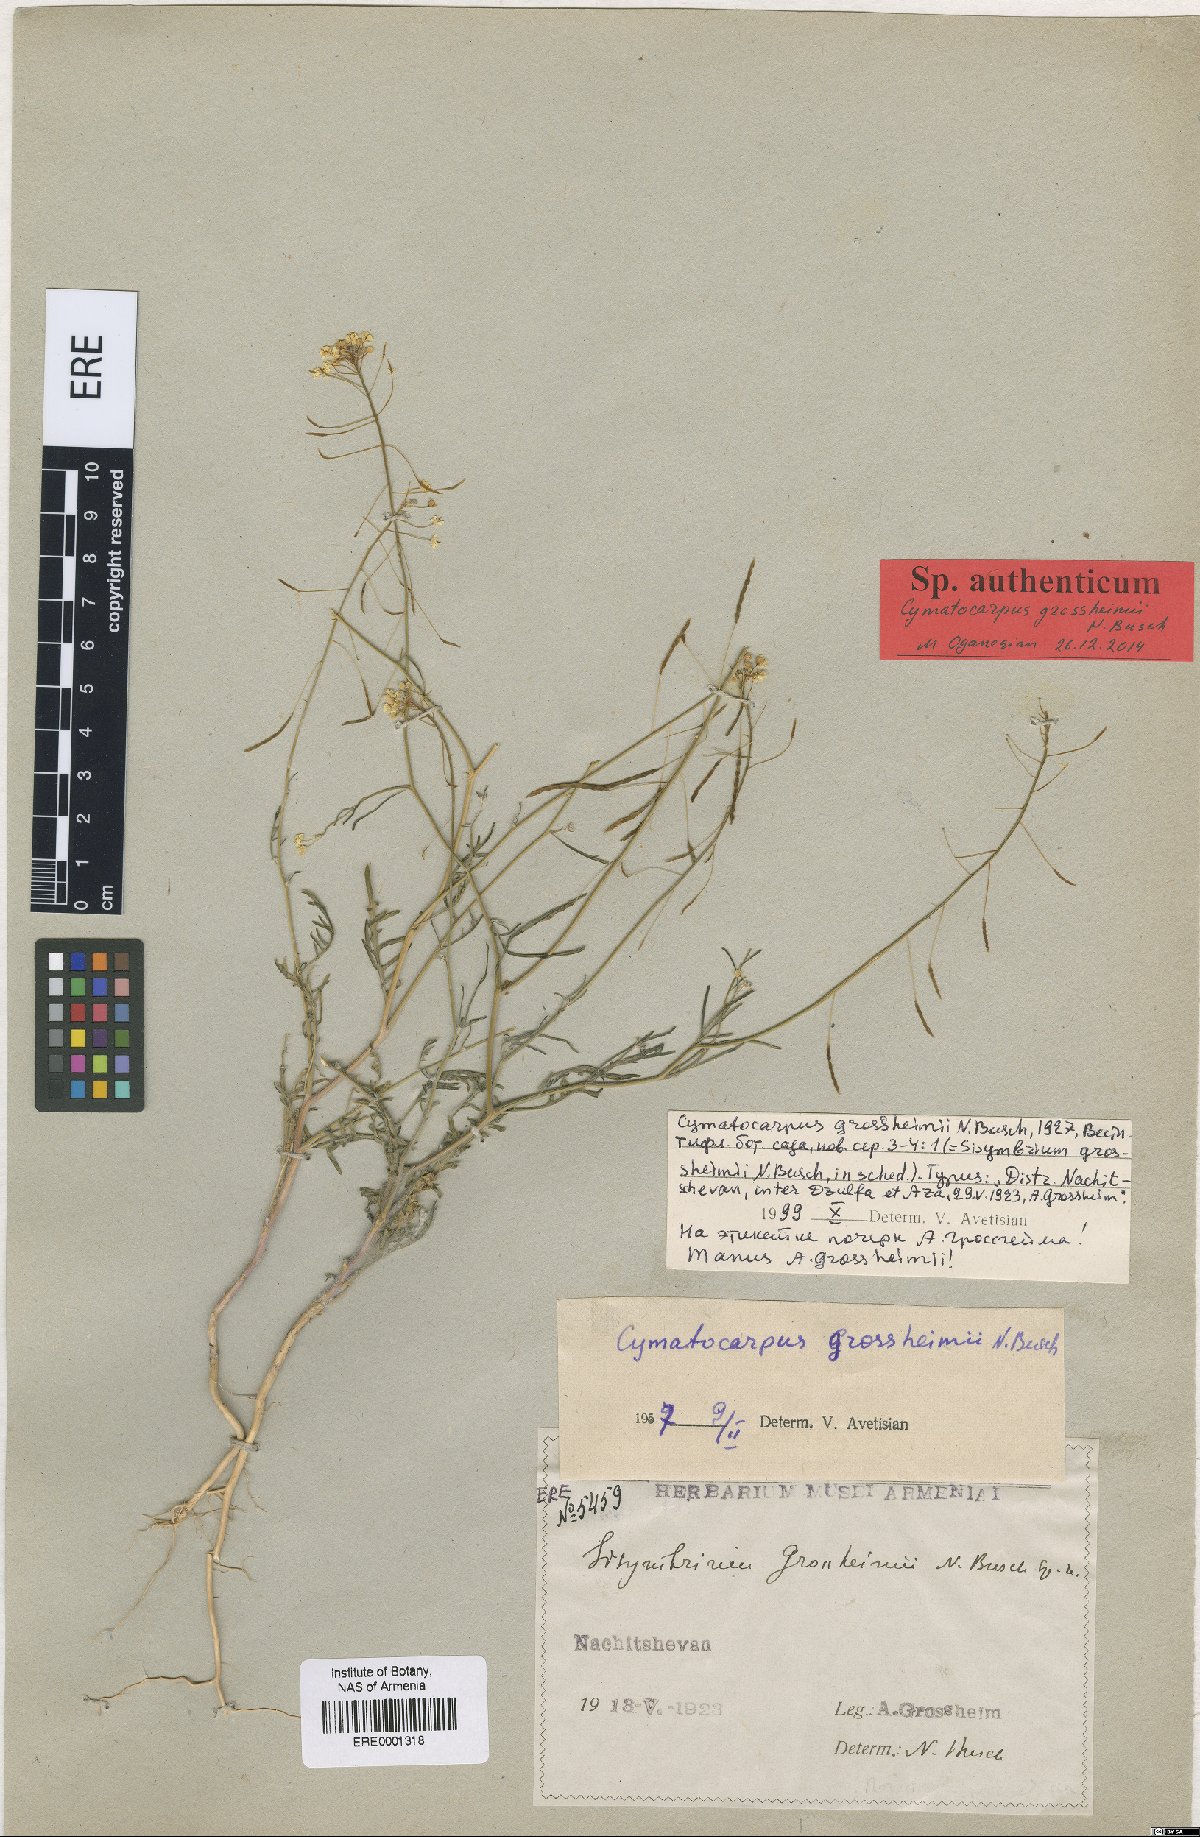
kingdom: Plantae
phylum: Tracheophyta
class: Magnoliopsida
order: Brassicales
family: Brassicaceae
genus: Cymatocarpus
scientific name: Cymatocarpus grossheimi
